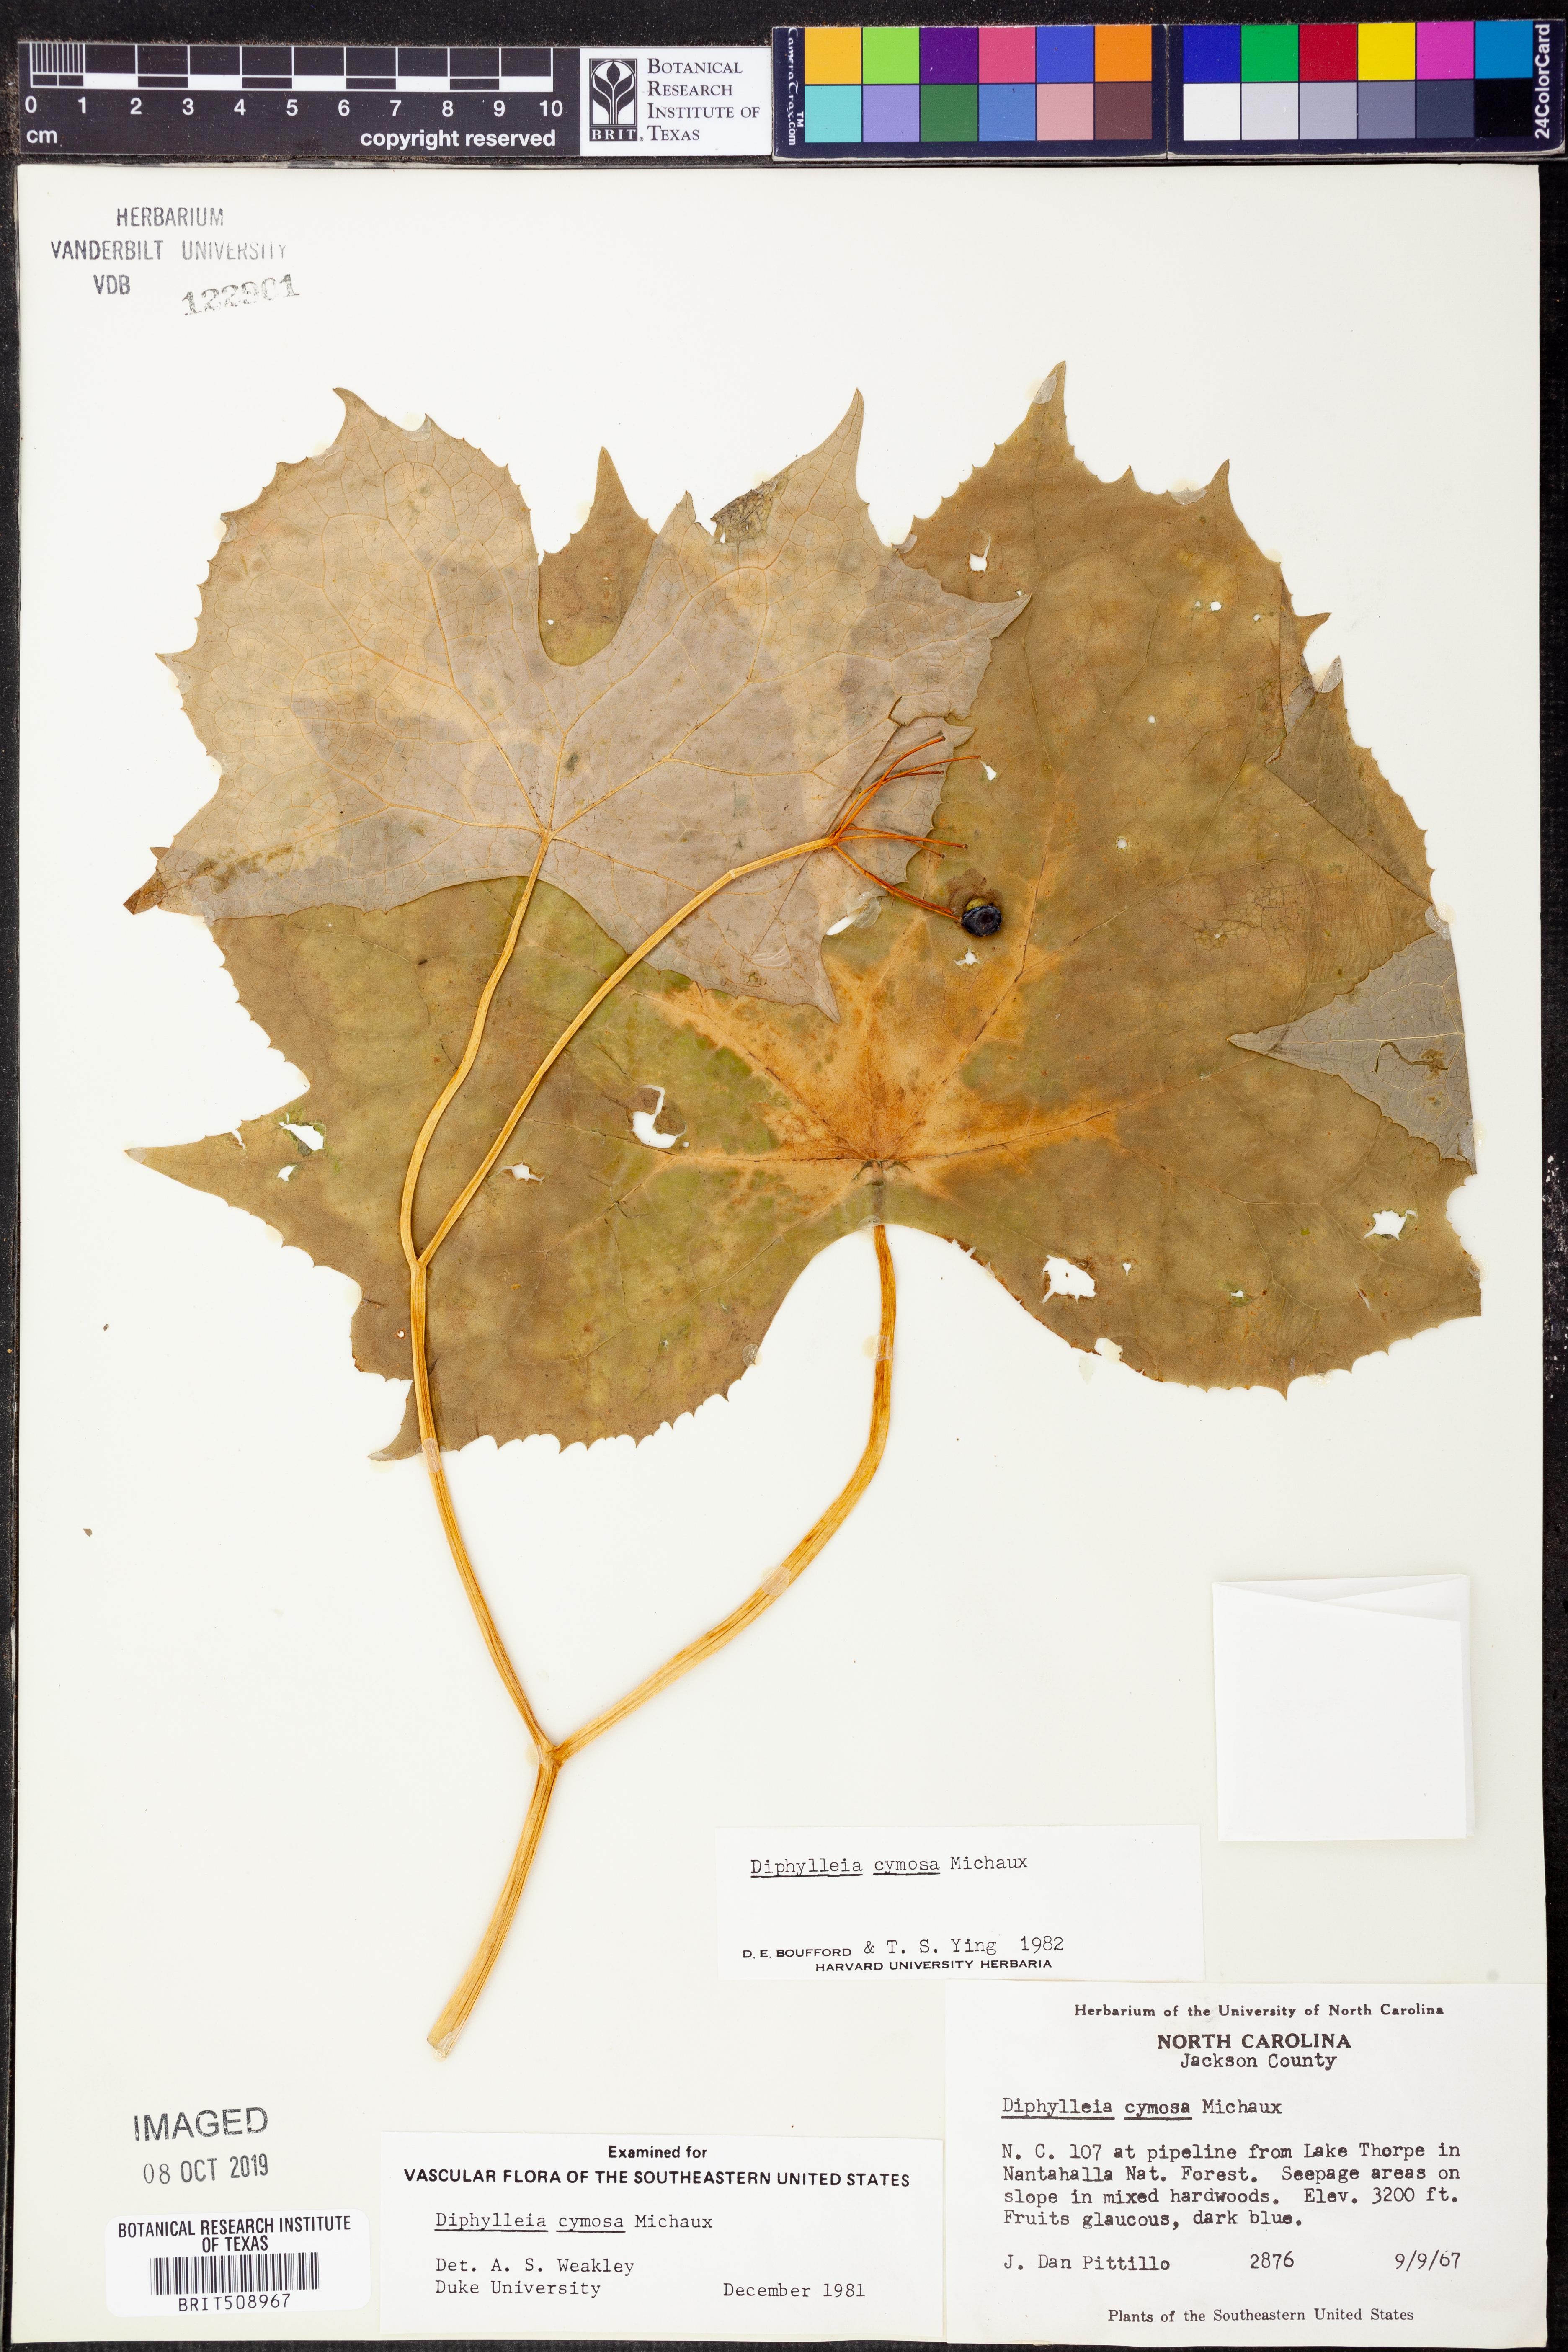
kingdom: Plantae
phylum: Tracheophyta
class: Magnoliopsida
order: Ranunculales
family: Berberidaceae
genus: Diphylleia
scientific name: Diphylleia cymosa
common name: Umbrella-leaf
